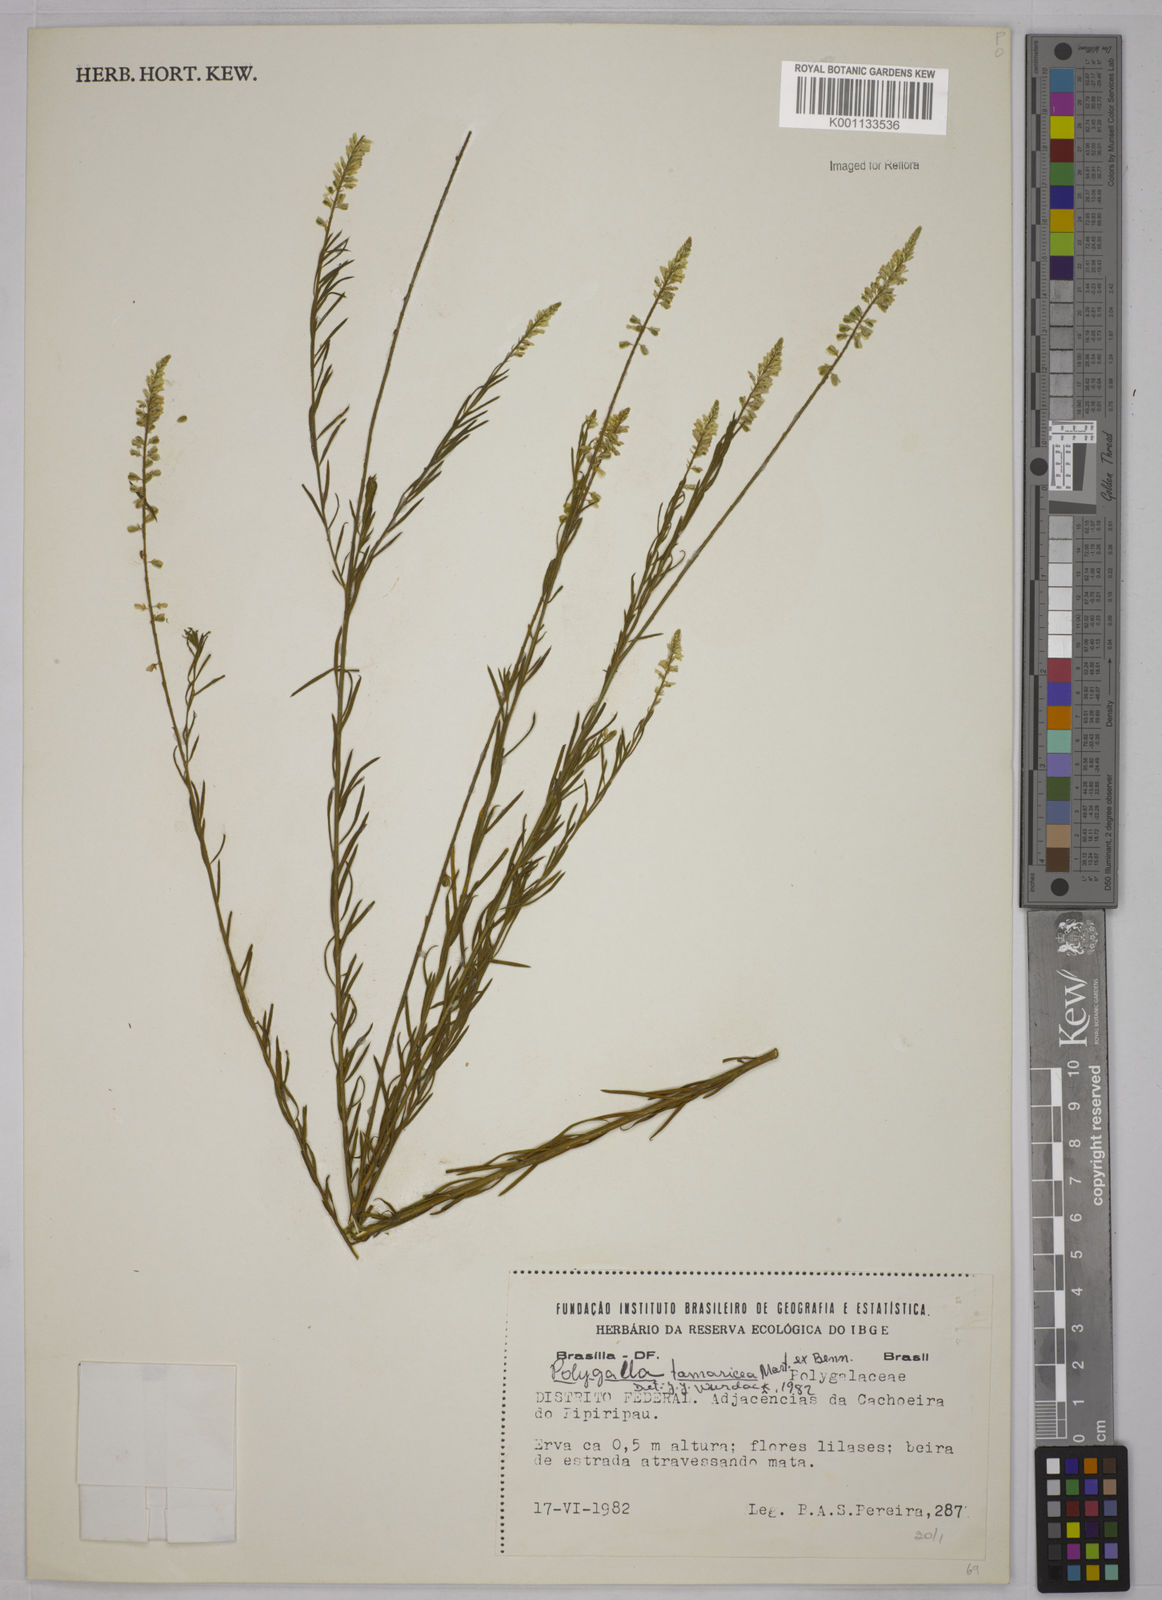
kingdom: Plantae
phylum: Tracheophyta
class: Magnoliopsida
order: Fabales
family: Polygalaceae
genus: Polygala
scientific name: Polygala tamariscea
